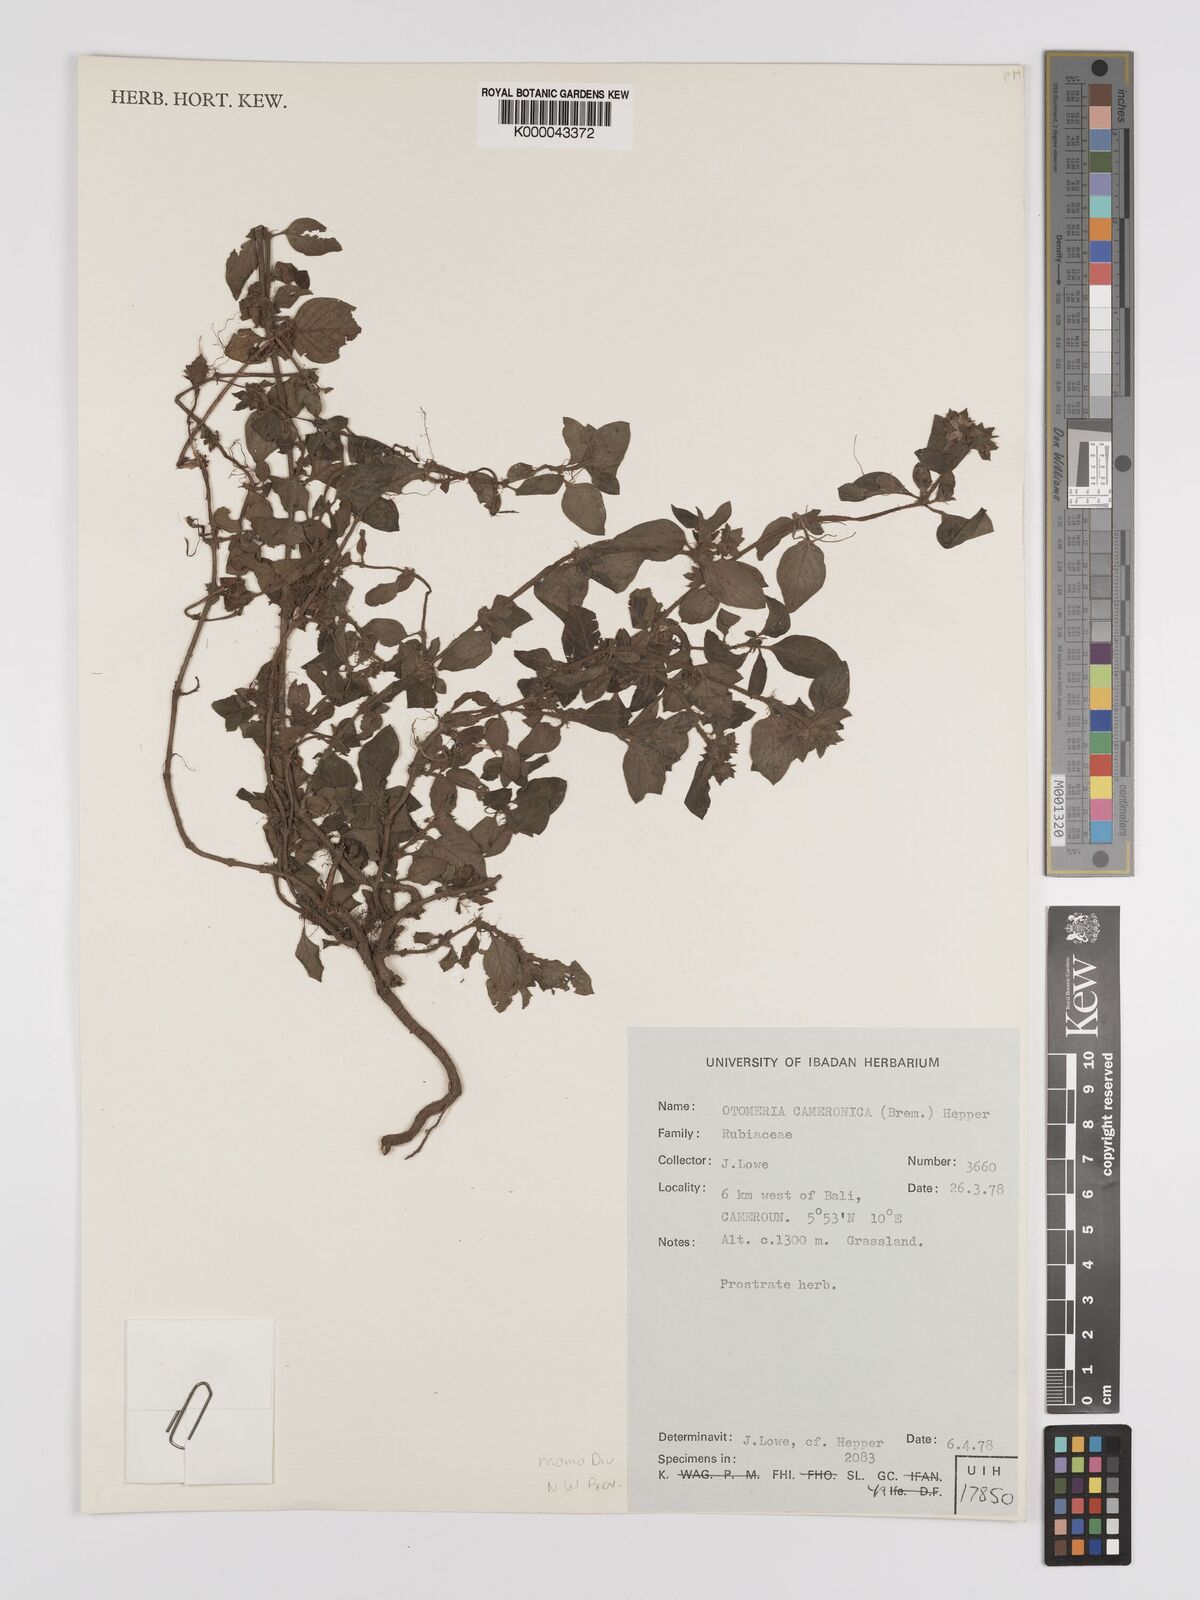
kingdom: Plantae
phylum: Tracheophyta
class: Magnoliopsida
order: Gentianales
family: Rubiaceae
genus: Otomeria
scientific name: Otomeria cameronica
